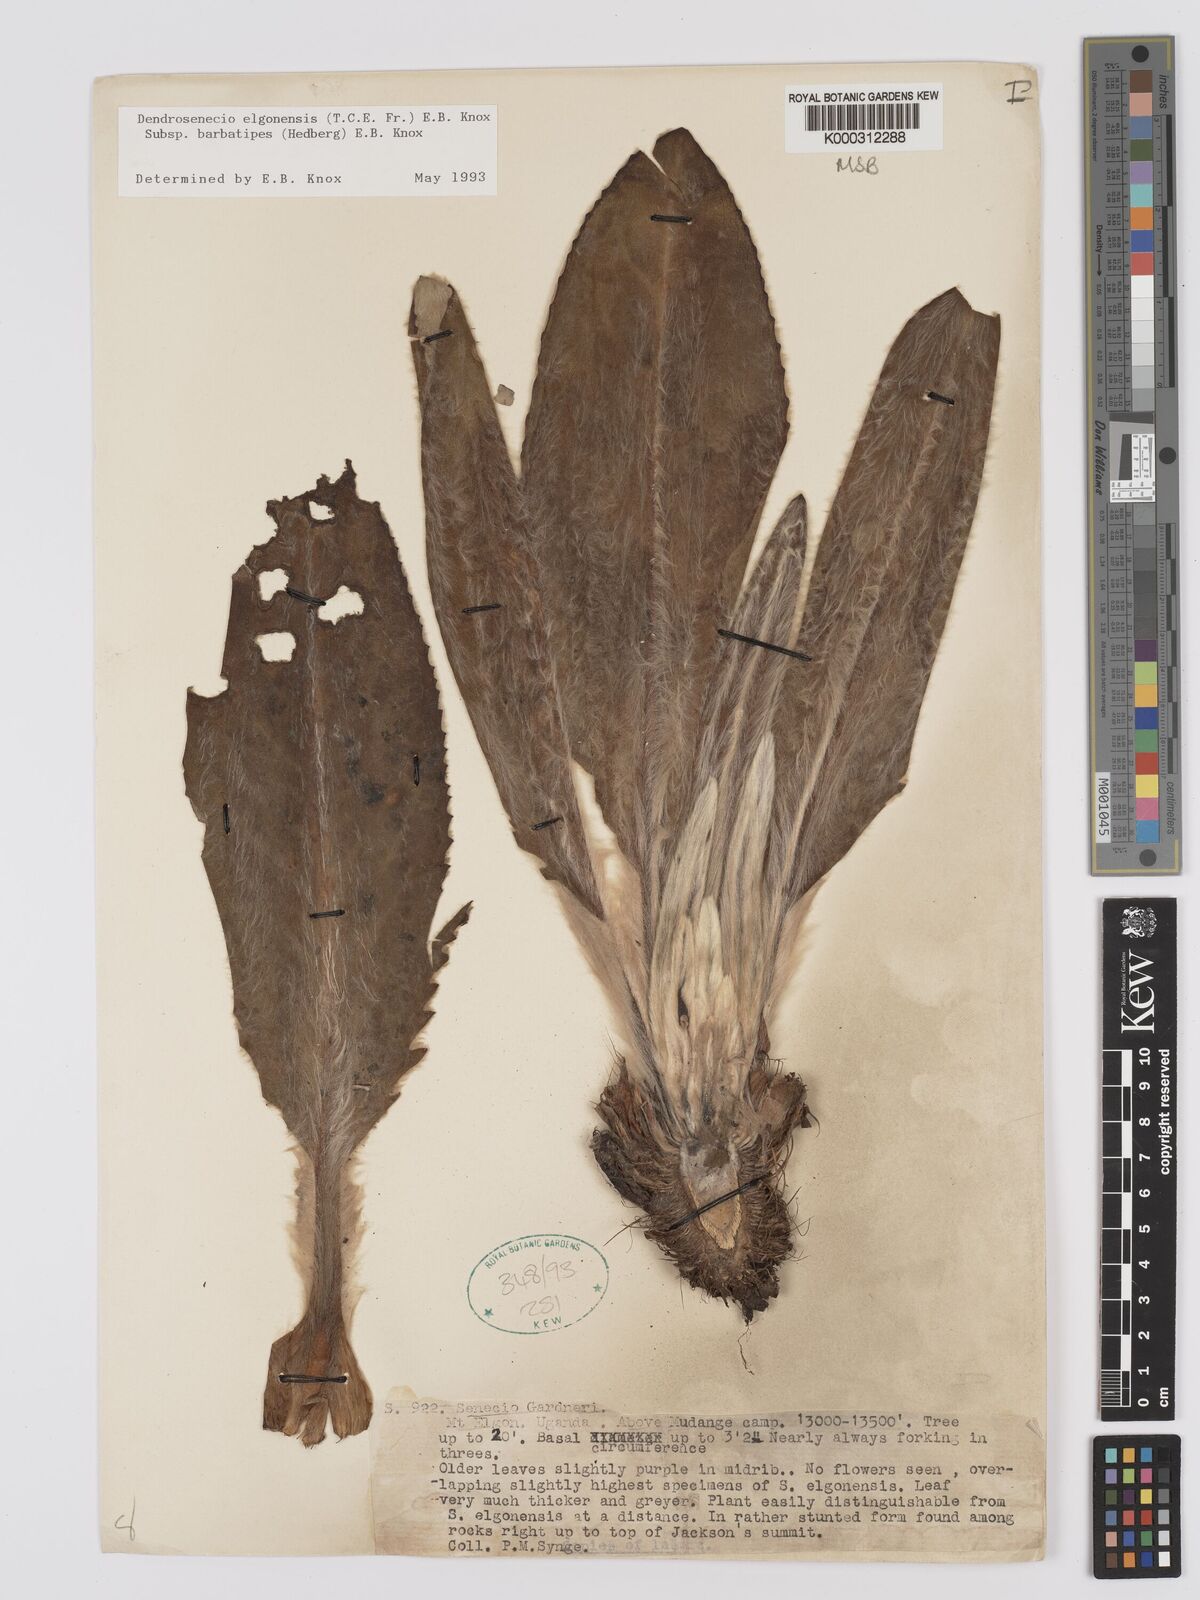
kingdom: Plantae
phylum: Tracheophyta
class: Magnoliopsida
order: Asterales
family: Asteraceae
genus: Dendrosenecio
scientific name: Dendrosenecio elgonensis
